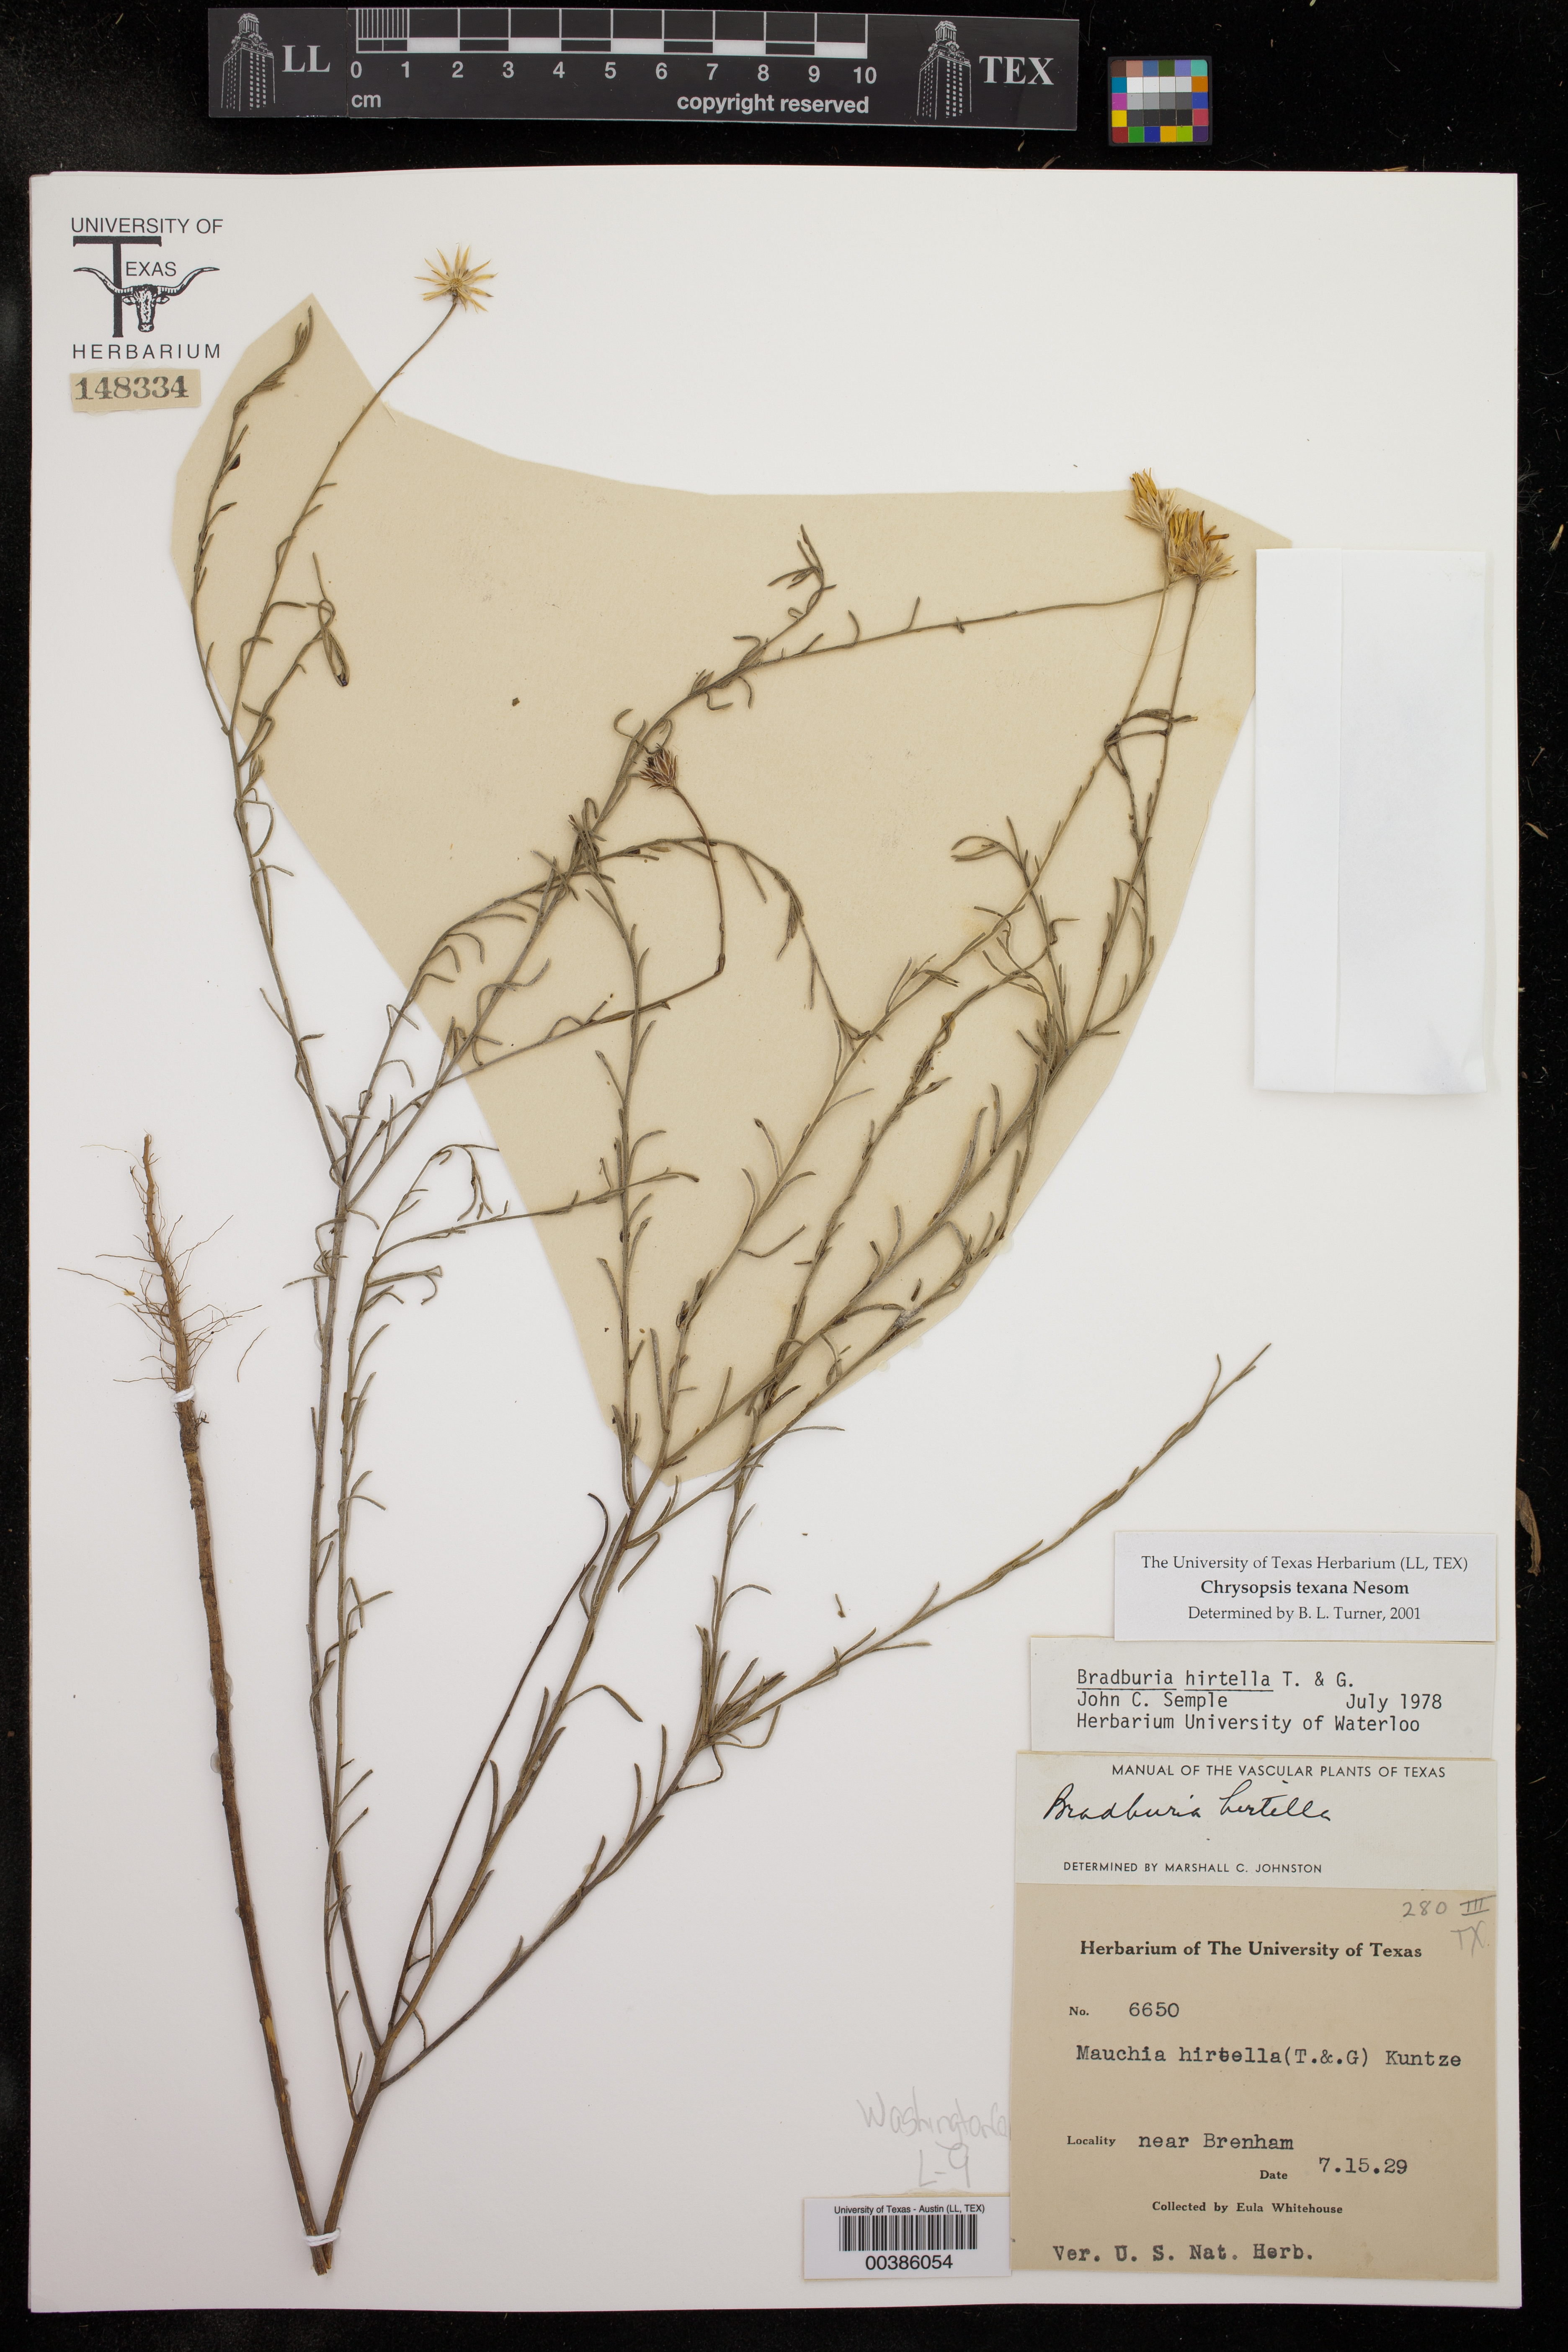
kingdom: Plantae
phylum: Tracheophyta
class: Magnoliopsida
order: Asterales
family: Asteraceae
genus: Bradburia
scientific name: Bradburia hirtella
